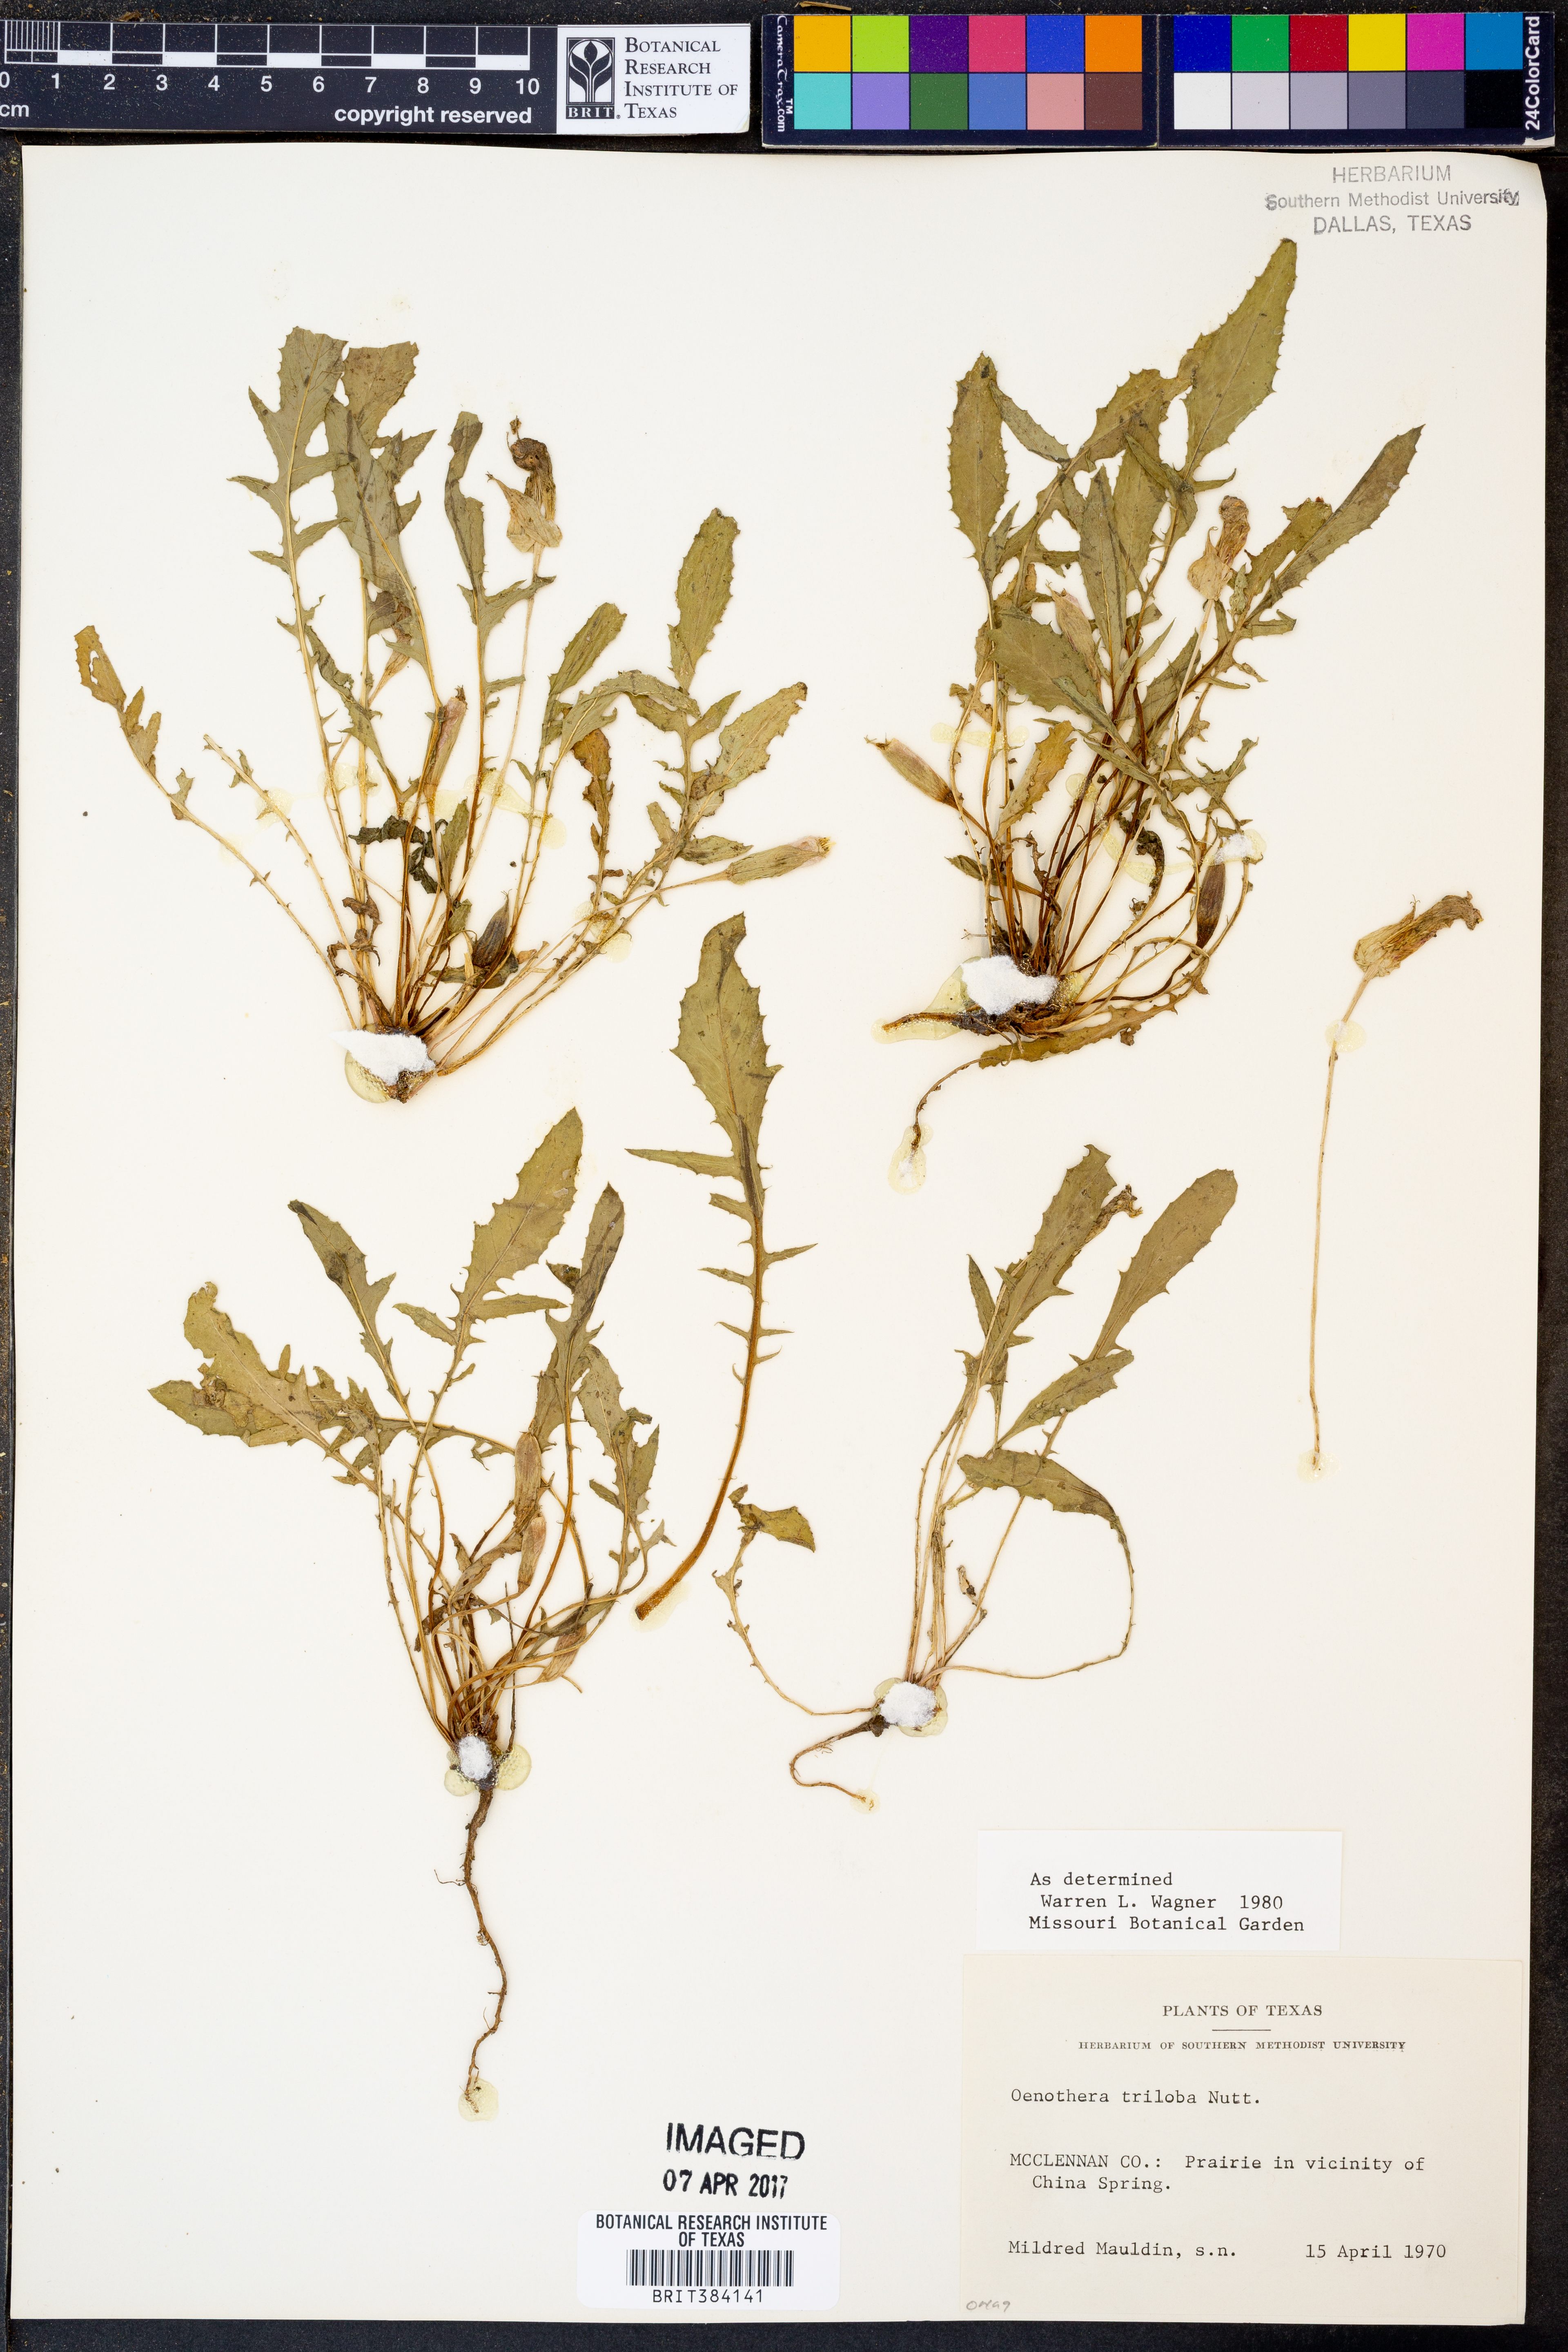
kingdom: Plantae
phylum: Tracheophyta
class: Magnoliopsida
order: Myrtales
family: Onagraceae
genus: Oenothera
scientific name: Oenothera triloba
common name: Sessile evening-primrose
